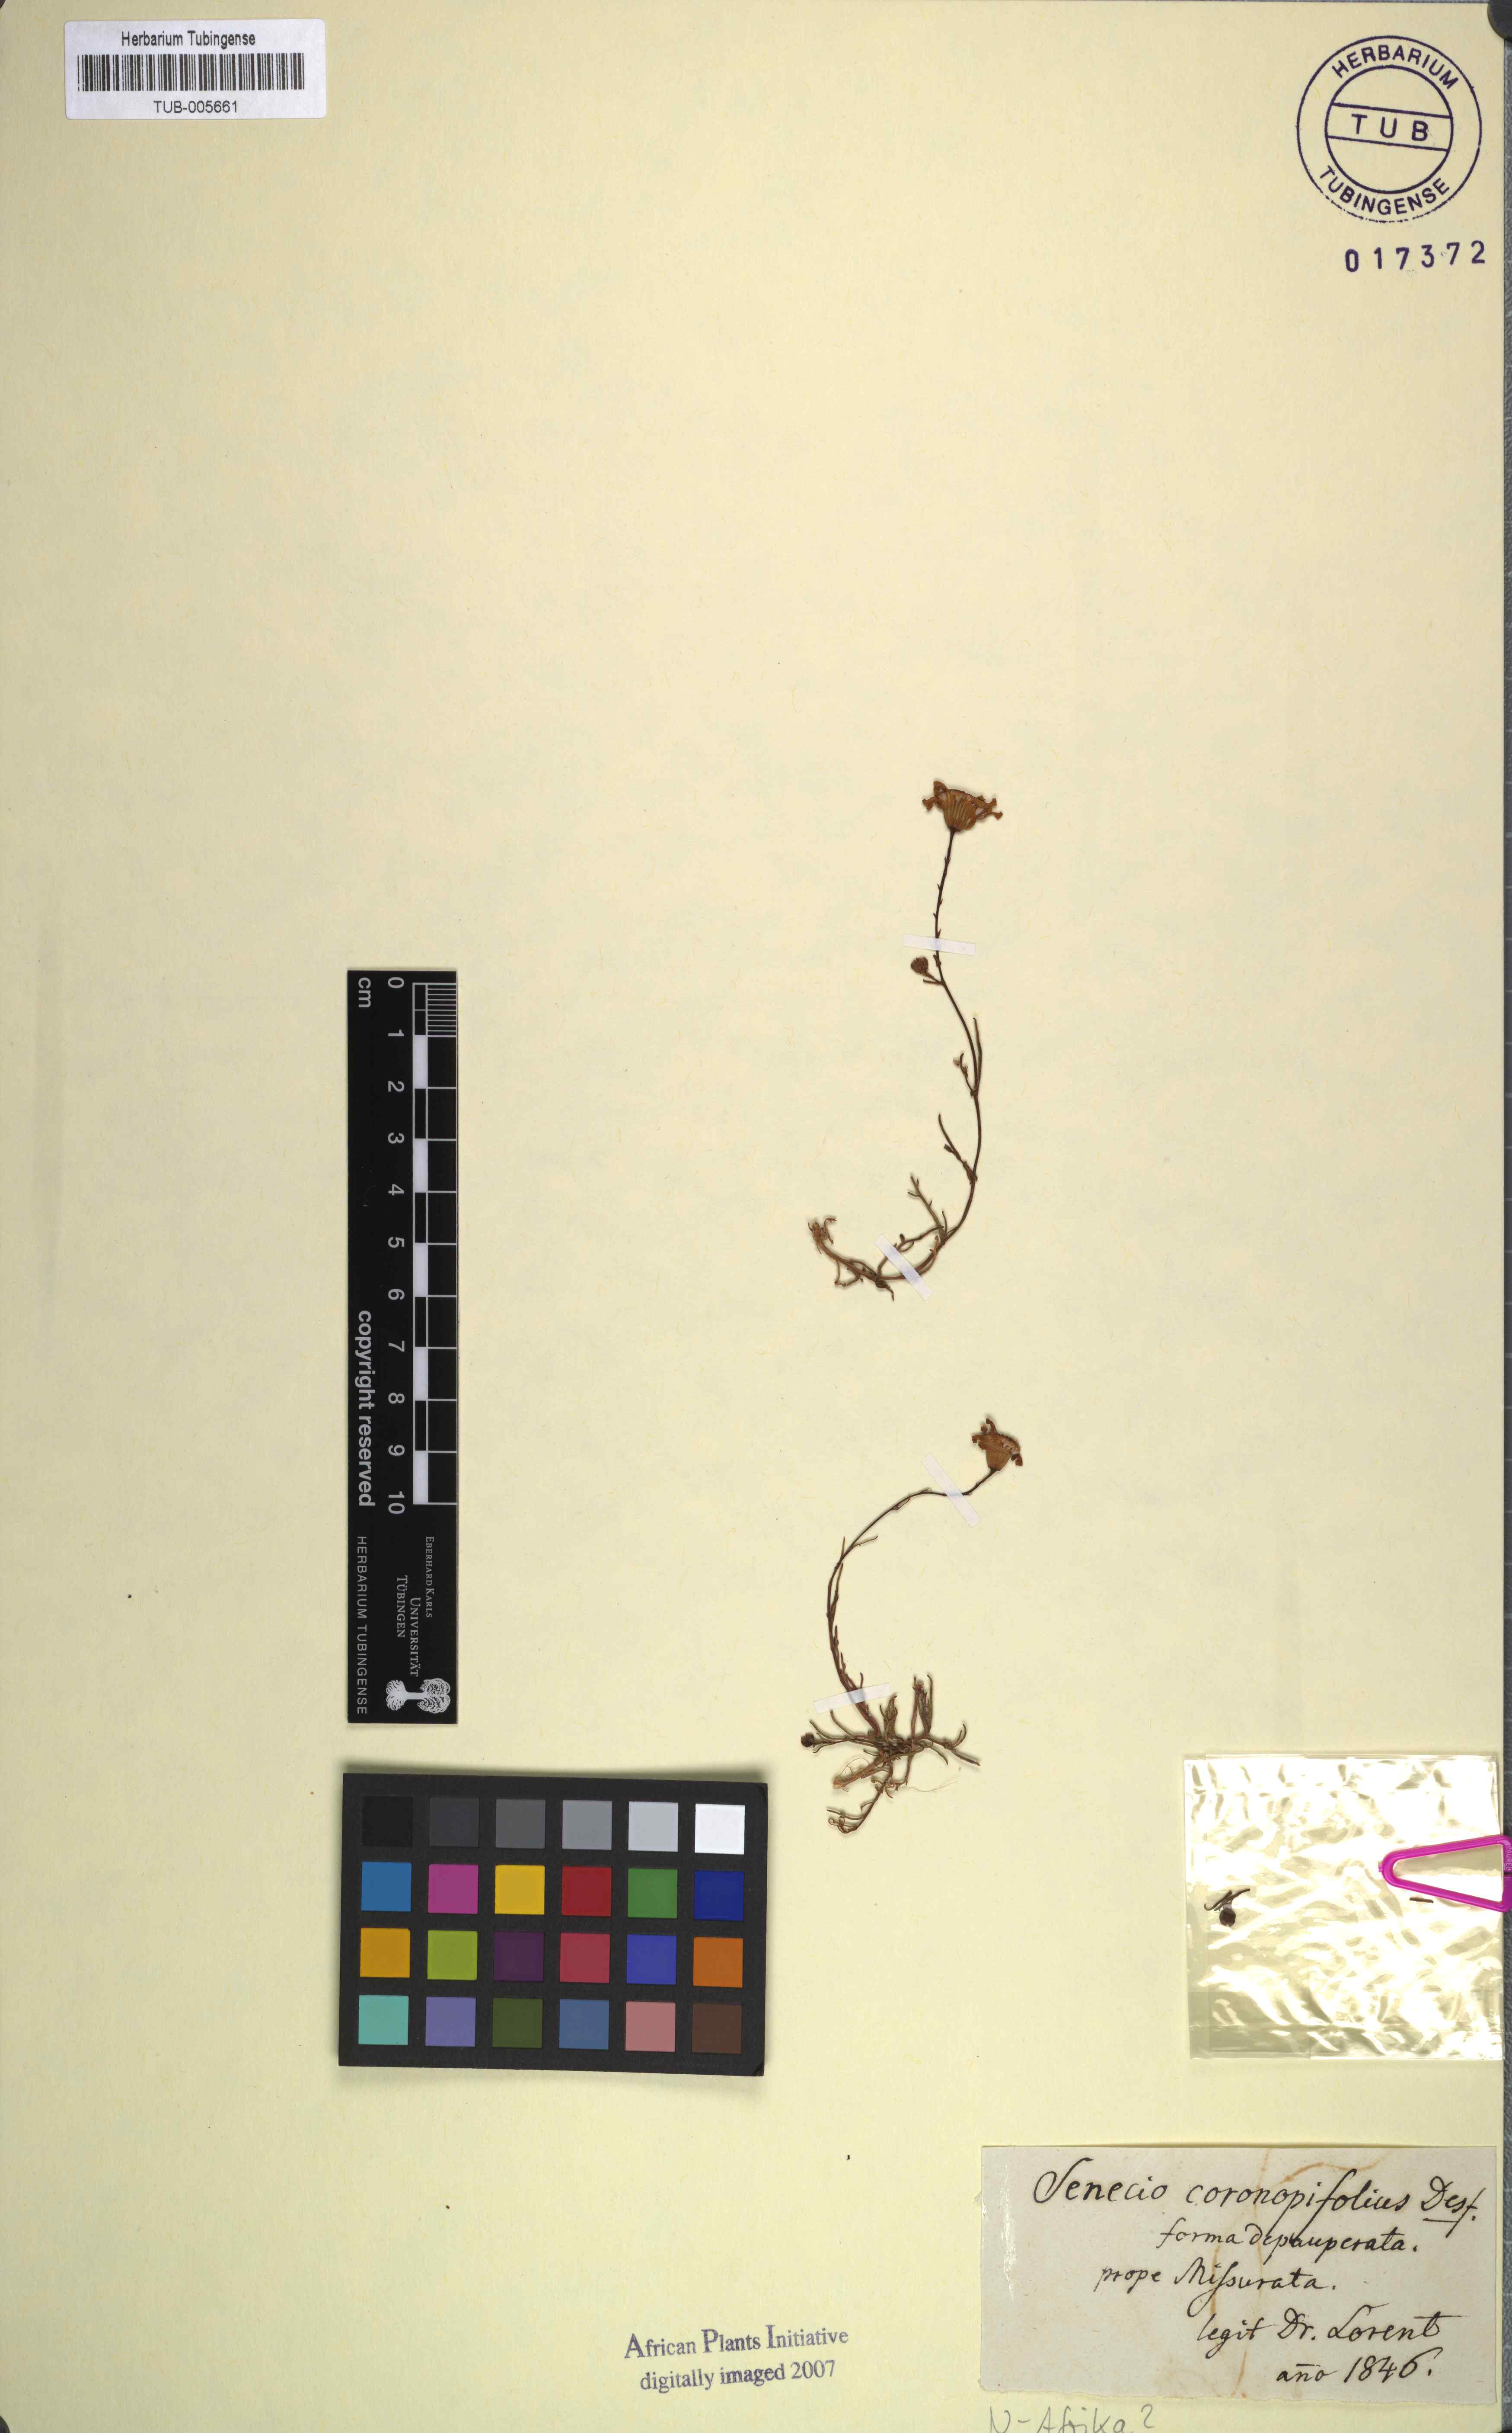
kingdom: Plantae
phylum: Tracheophyta
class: Magnoliopsida
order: Asterales
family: Asteraceae
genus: Senecio
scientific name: Senecio gallicus
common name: French groundsel
